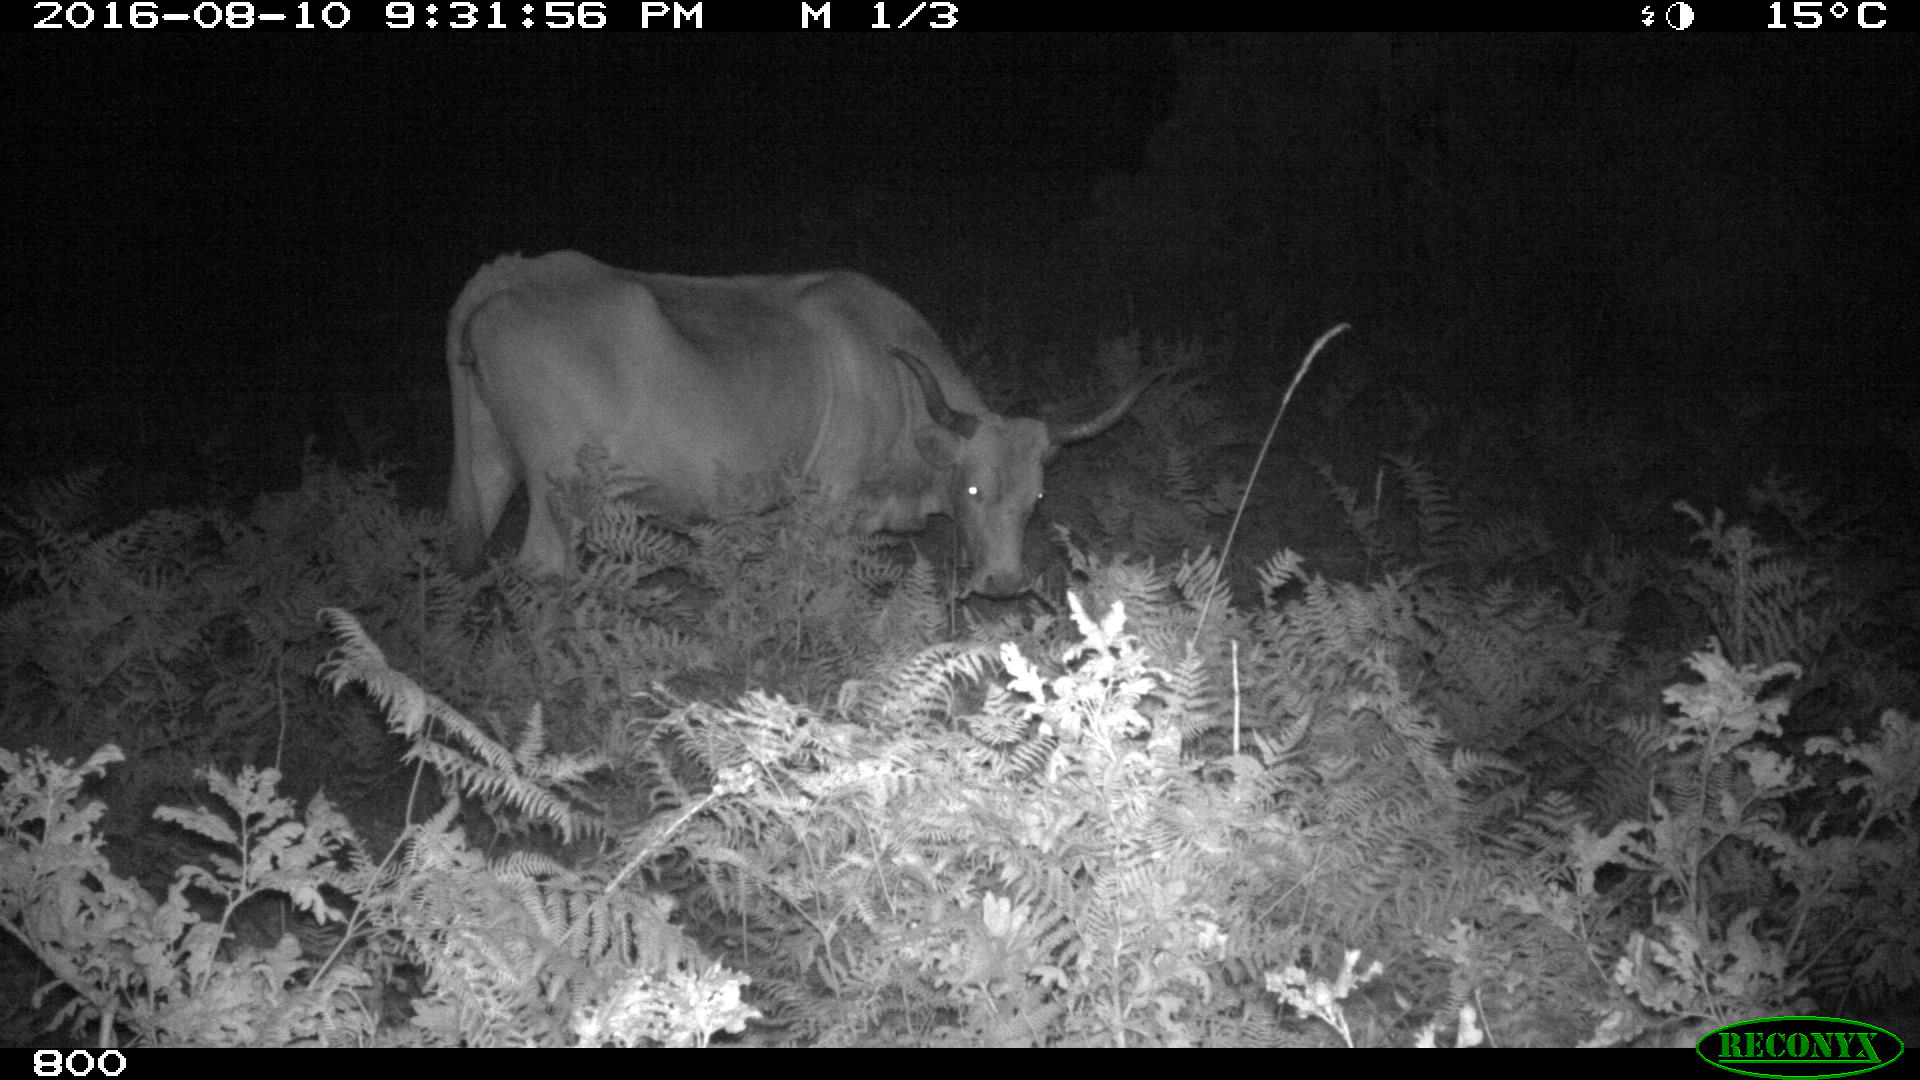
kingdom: Animalia
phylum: Chordata
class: Mammalia
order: Artiodactyla
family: Bovidae
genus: Bos
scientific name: Bos taurus
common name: Domesticated cattle
